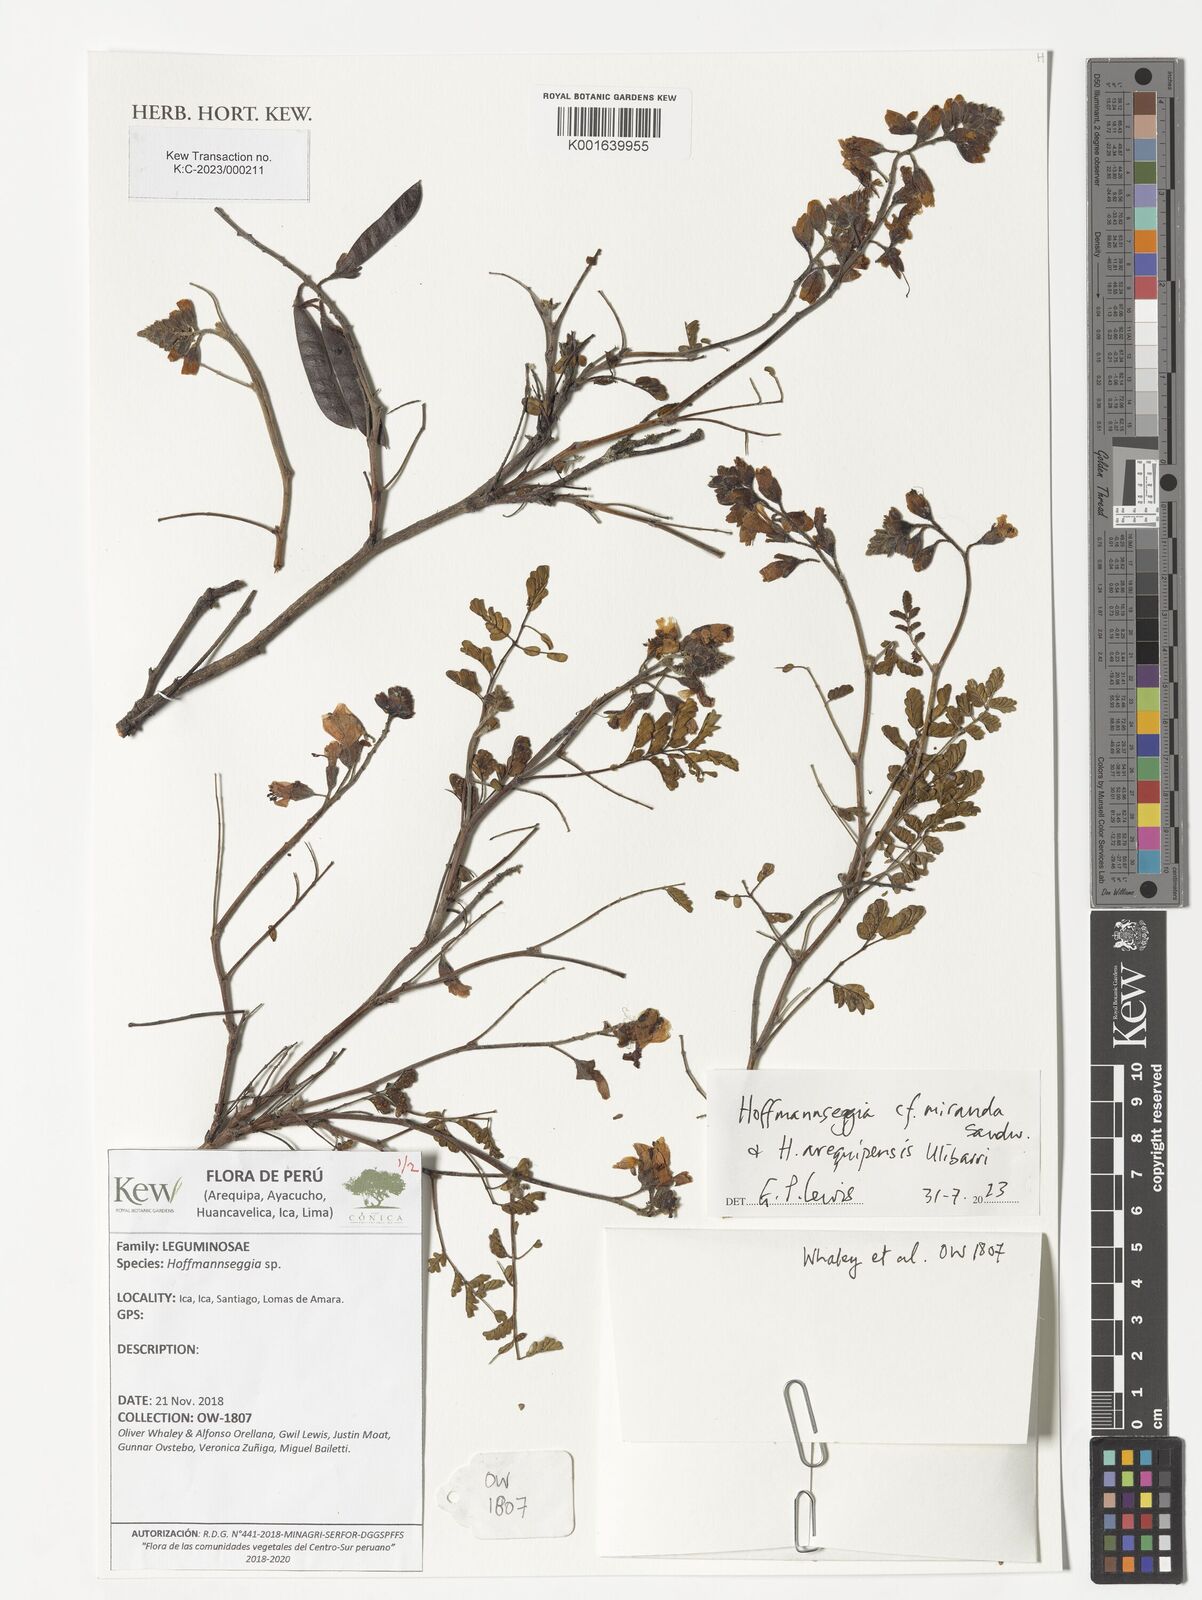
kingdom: Plantae
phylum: Tracheophyta
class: Magnoliopsida
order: Fabales
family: Fabaceae
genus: Hoffmannseggia
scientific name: Hoffmannseggia miranda
